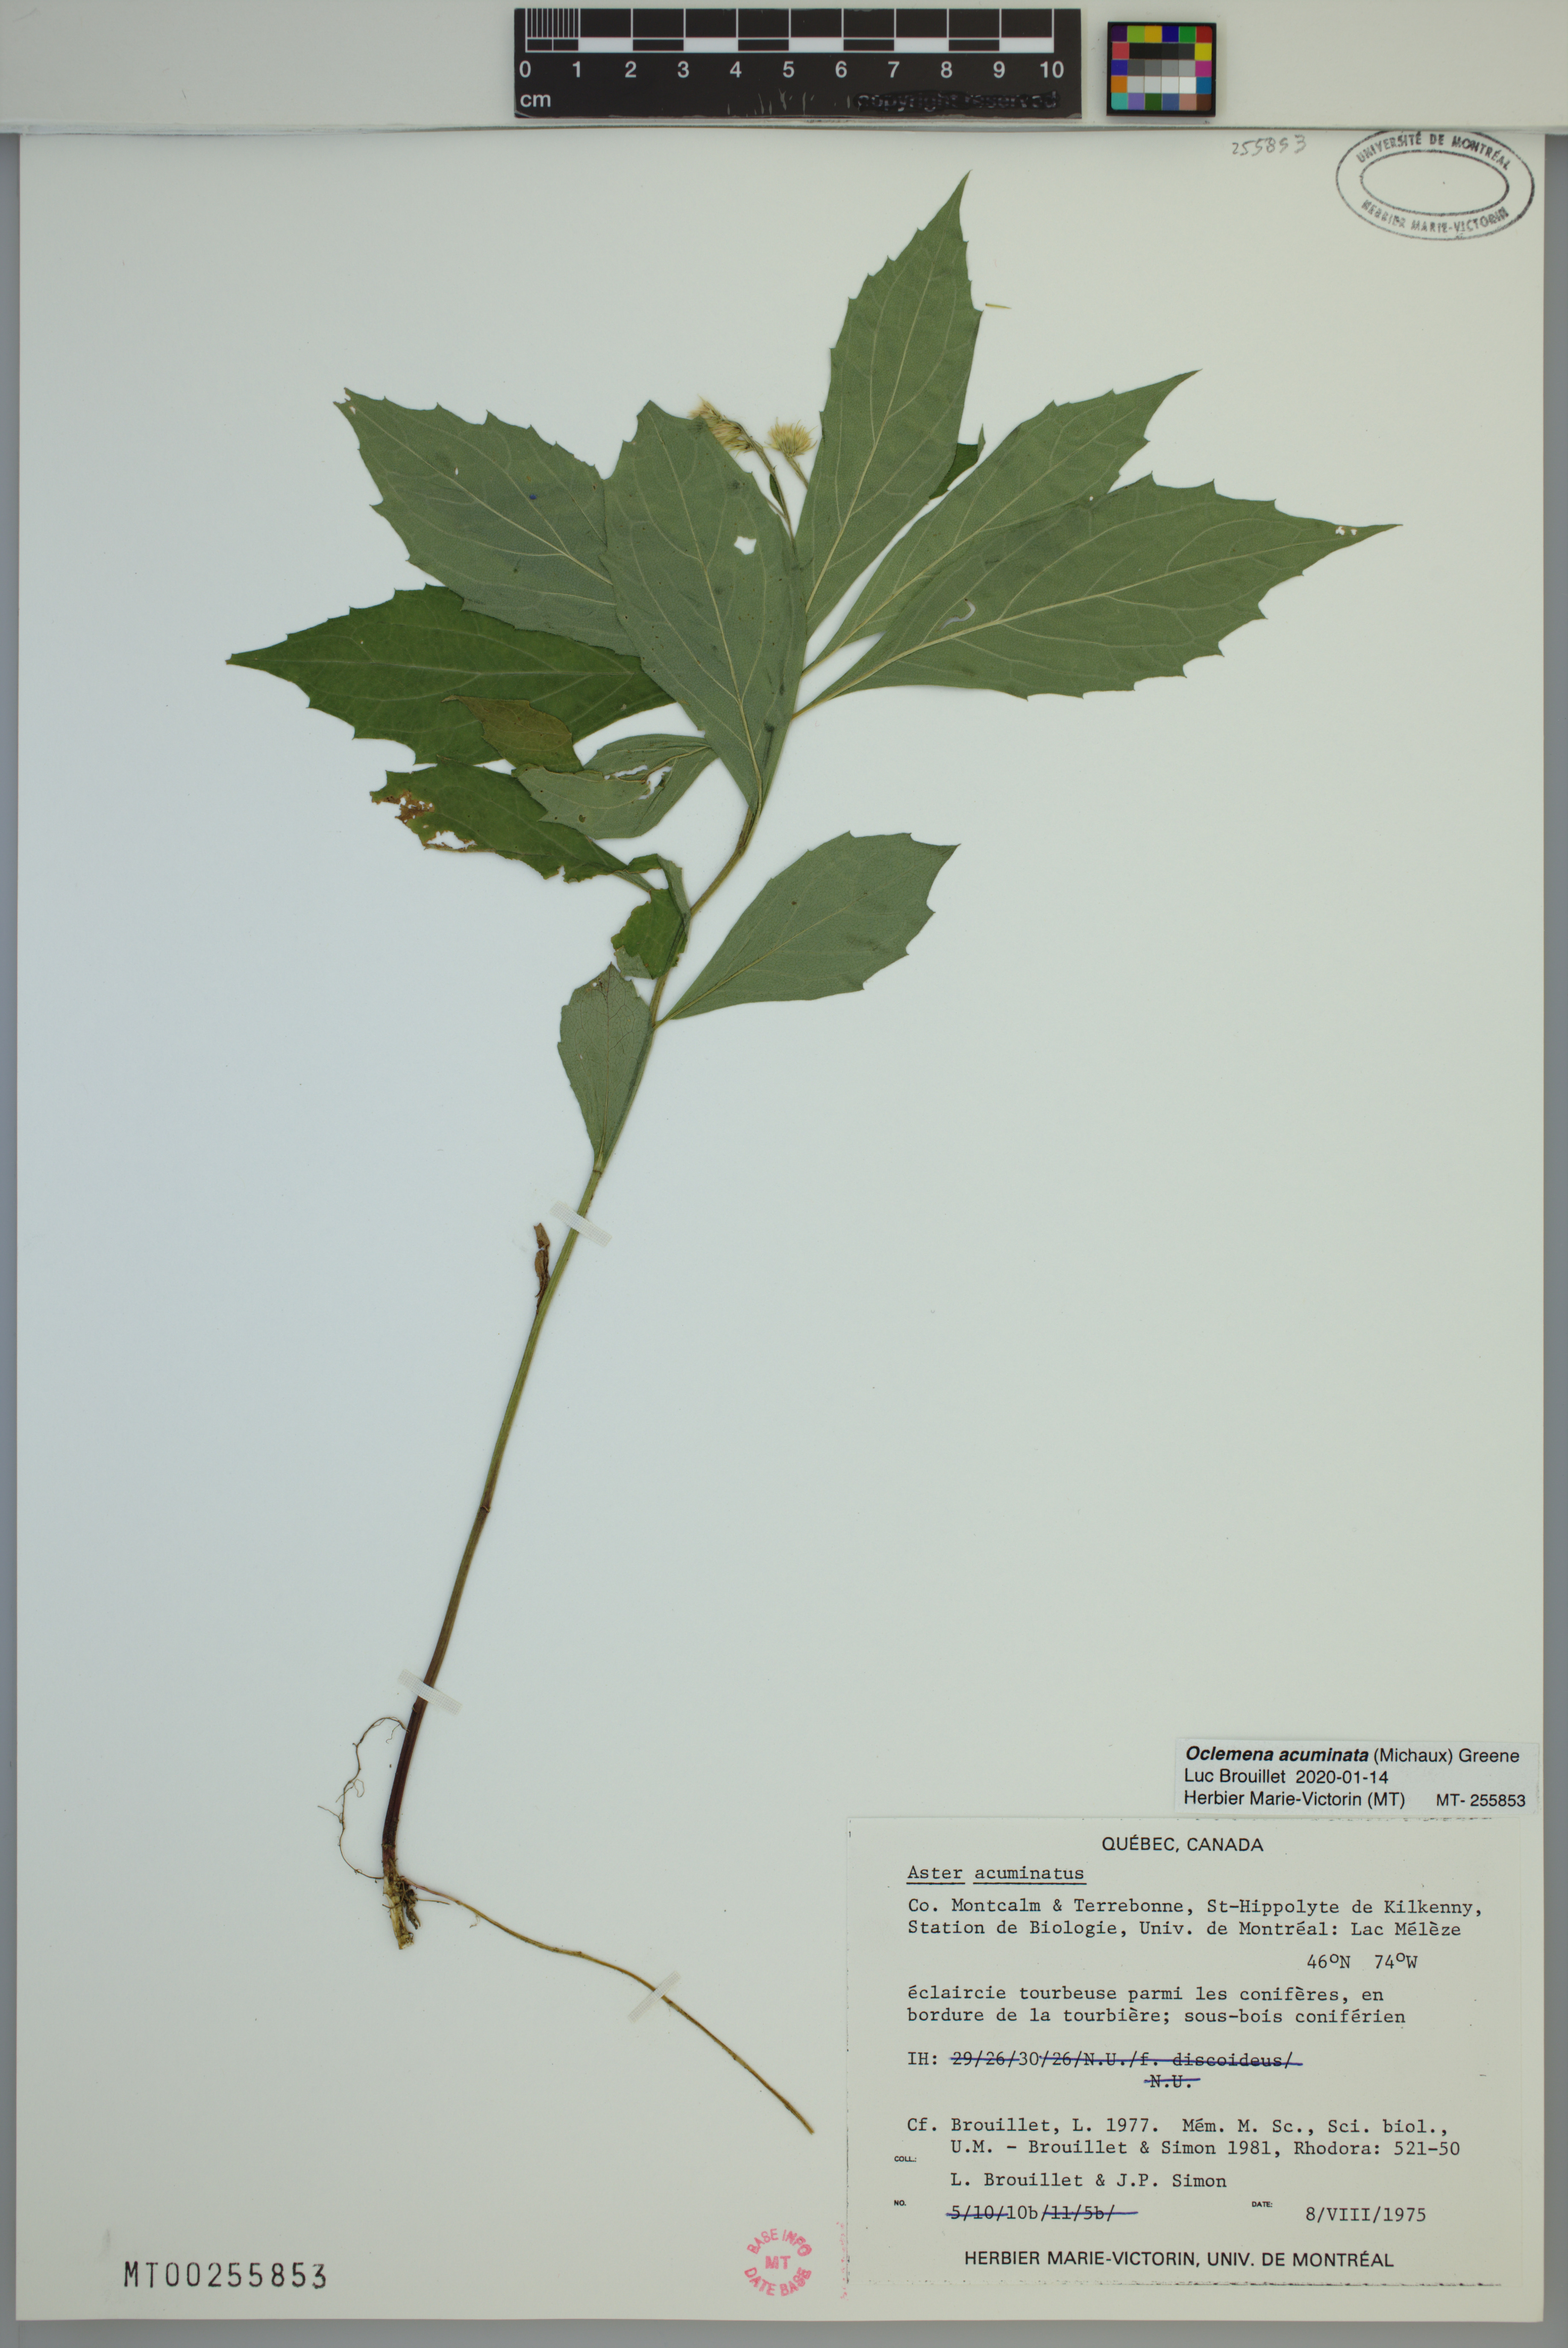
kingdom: Plantae
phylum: Tracheophyta
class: Magnoliopsida
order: Asterales
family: Asteraceae
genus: Oclemena
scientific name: Oclemena acuminata
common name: Mountain aster
